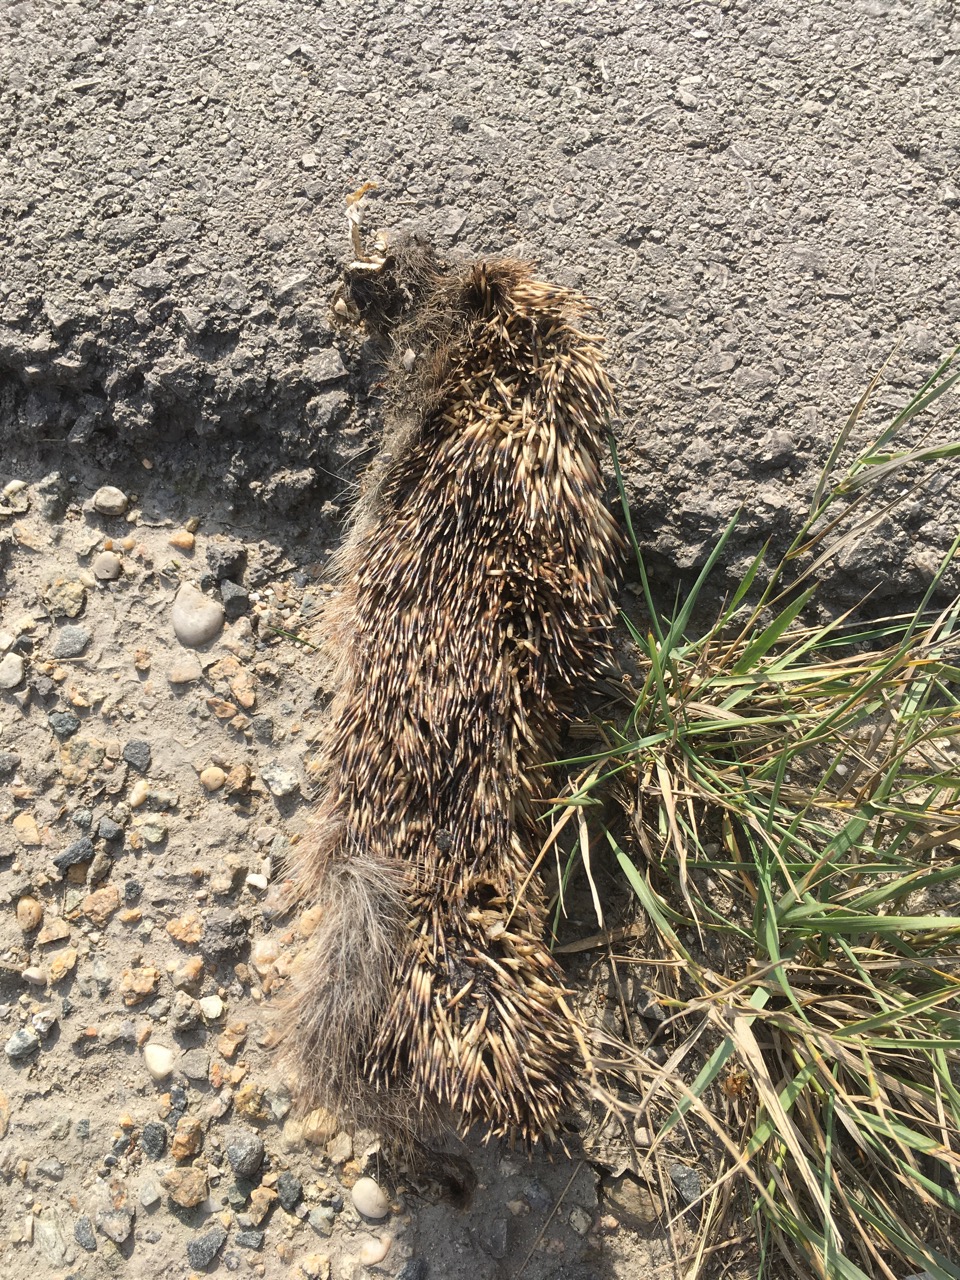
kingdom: Animalia
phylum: Chordata
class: Mammalia
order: Erinaceomorpha
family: Erinaceidae
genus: Erinaceus
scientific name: Erinaceus
